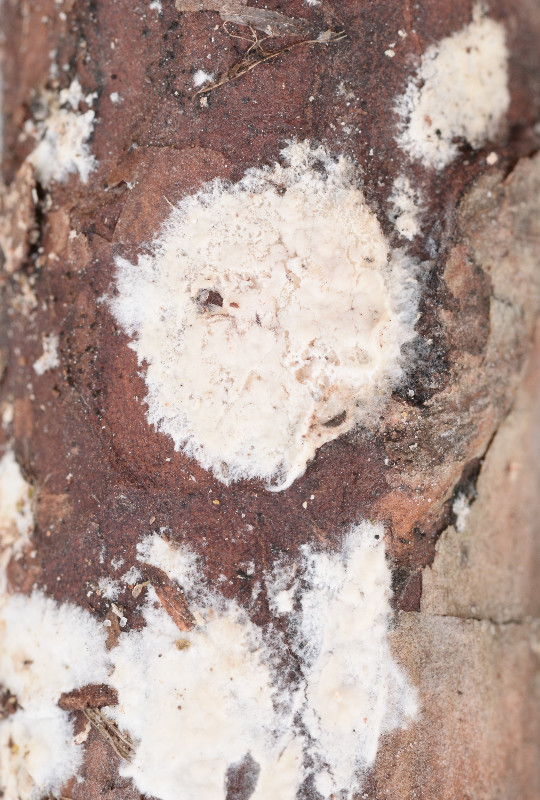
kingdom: Fungi
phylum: Basidiomycota
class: Agaricomycetes
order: Agaricales
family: Physalacriaceae
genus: Cylindrobasidium
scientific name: Cylindrobasidium evolvens
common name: sprækkehinde
